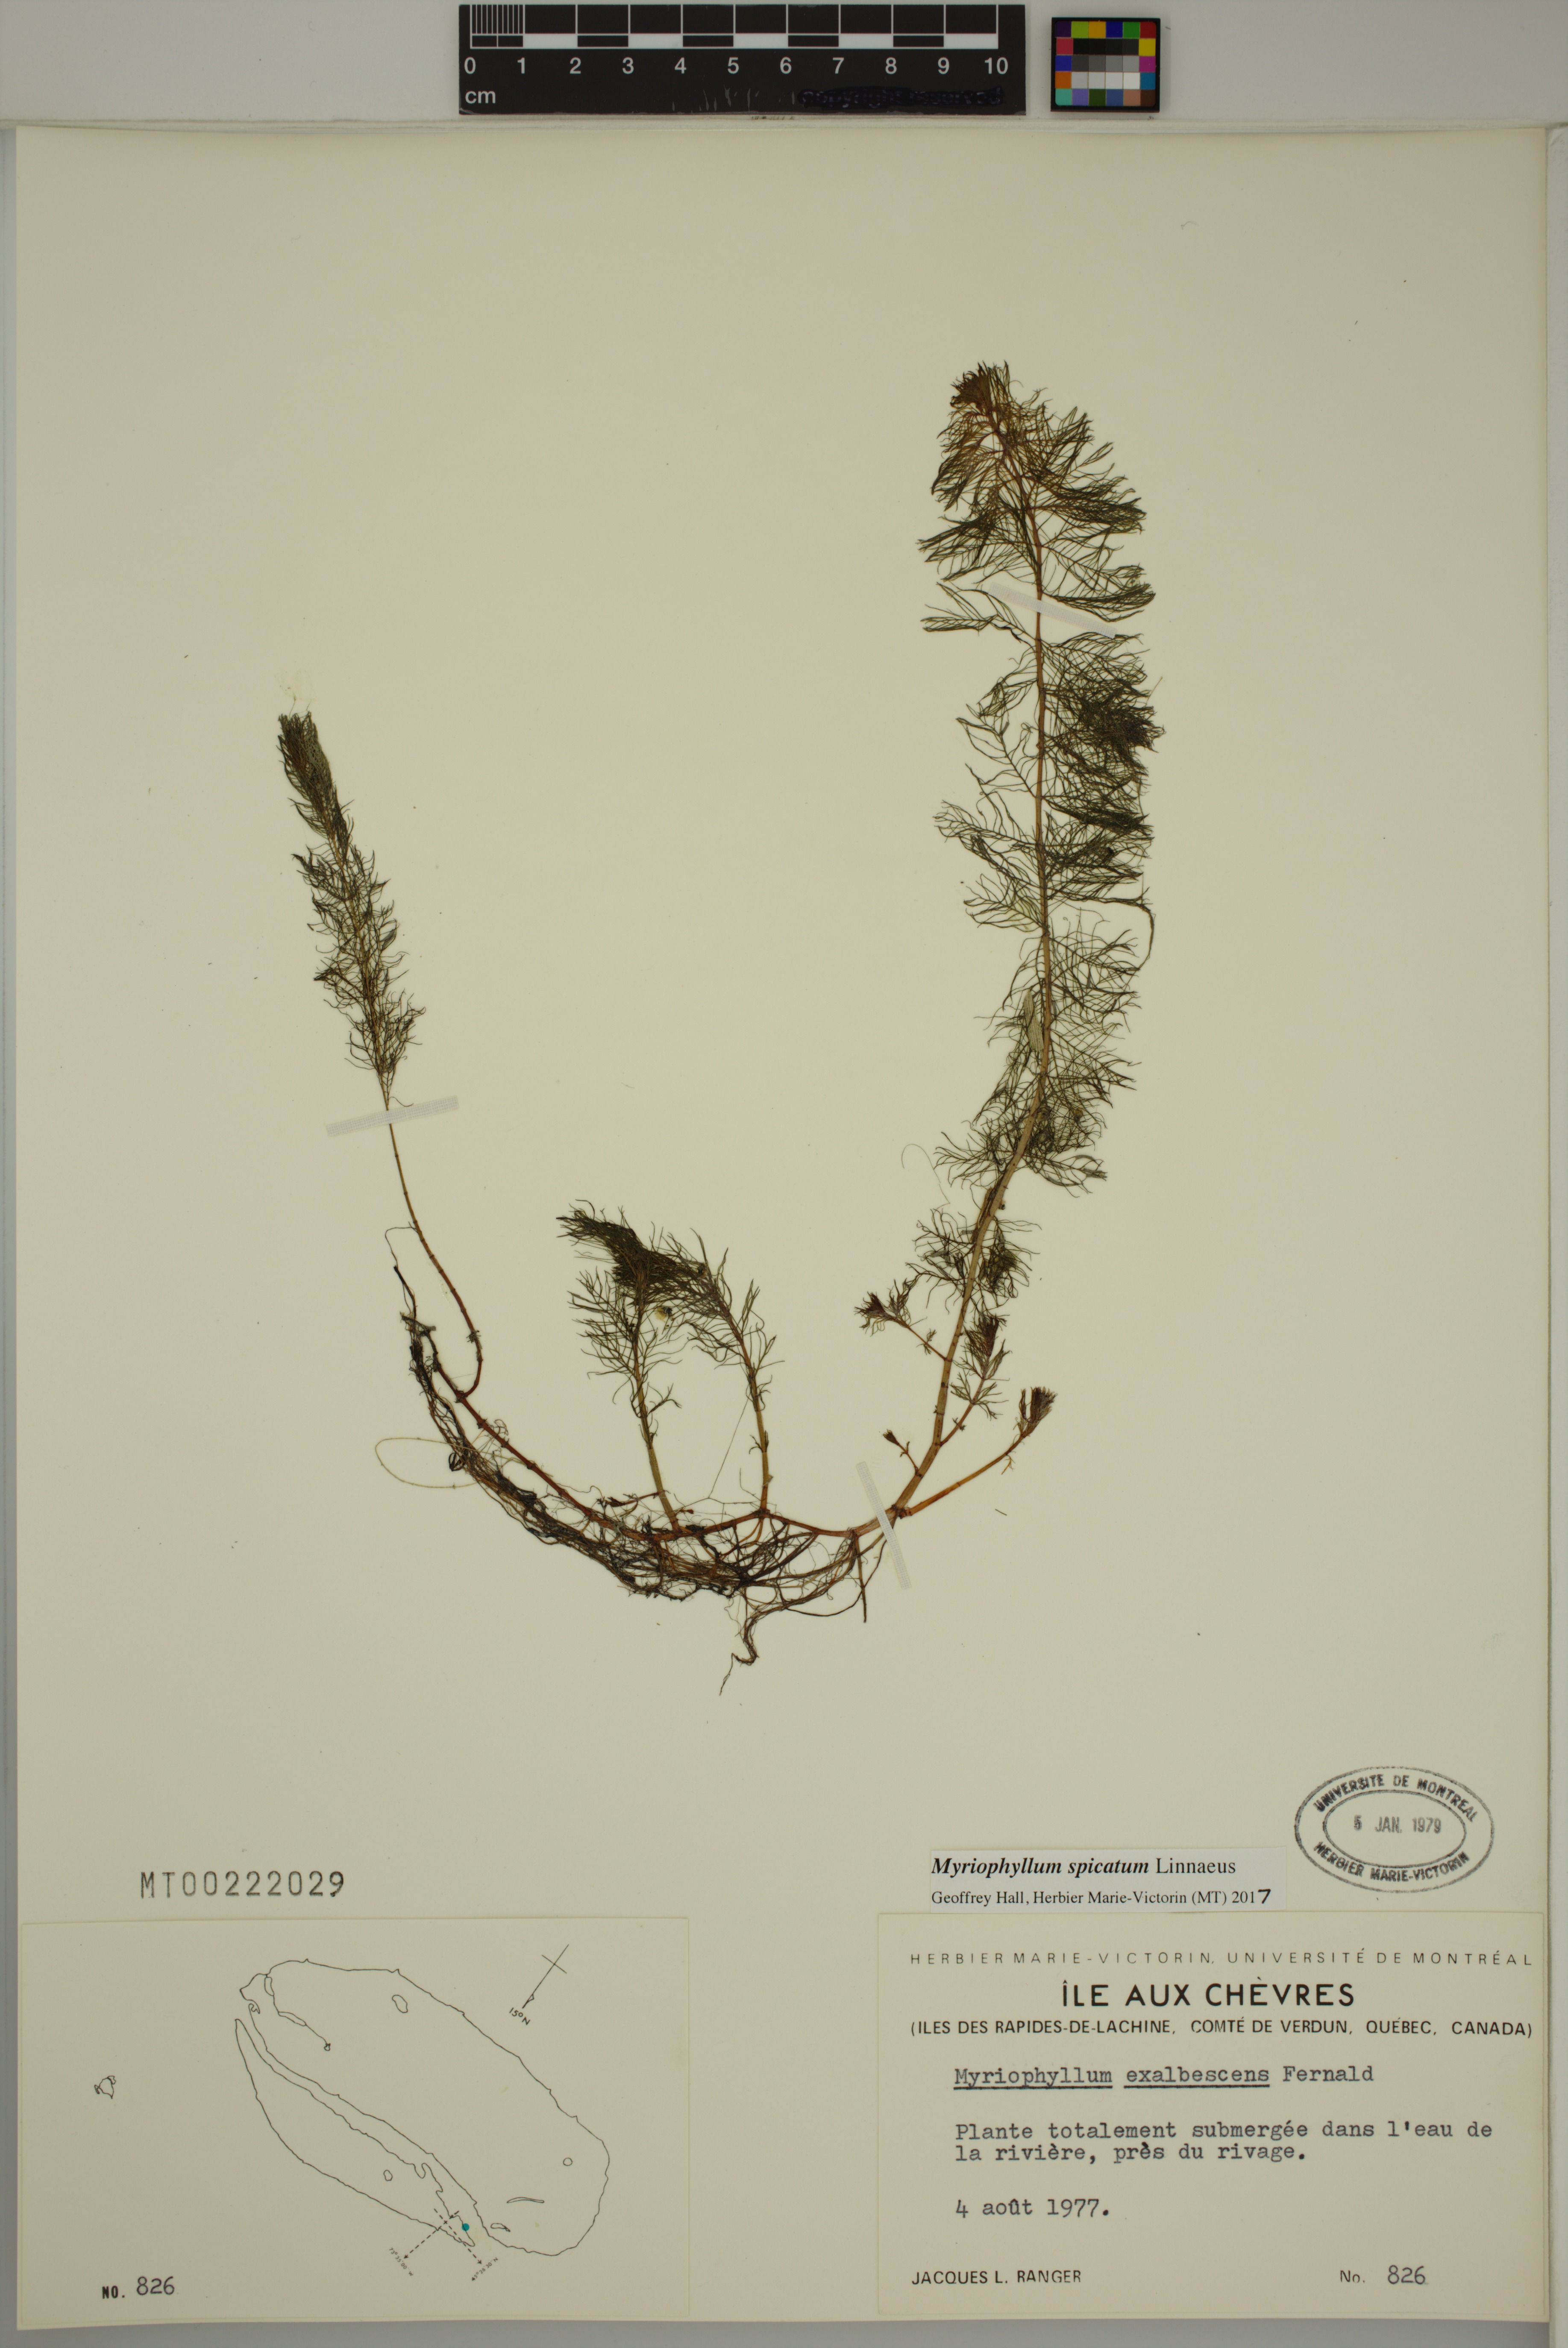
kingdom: Plantae
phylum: Tracheophyta
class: Magnoliopsida
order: Saxifragales
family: Haloragaceae
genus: Myriophyllum
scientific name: Myriophyllum spicatum
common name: Spiked water-milfoil
